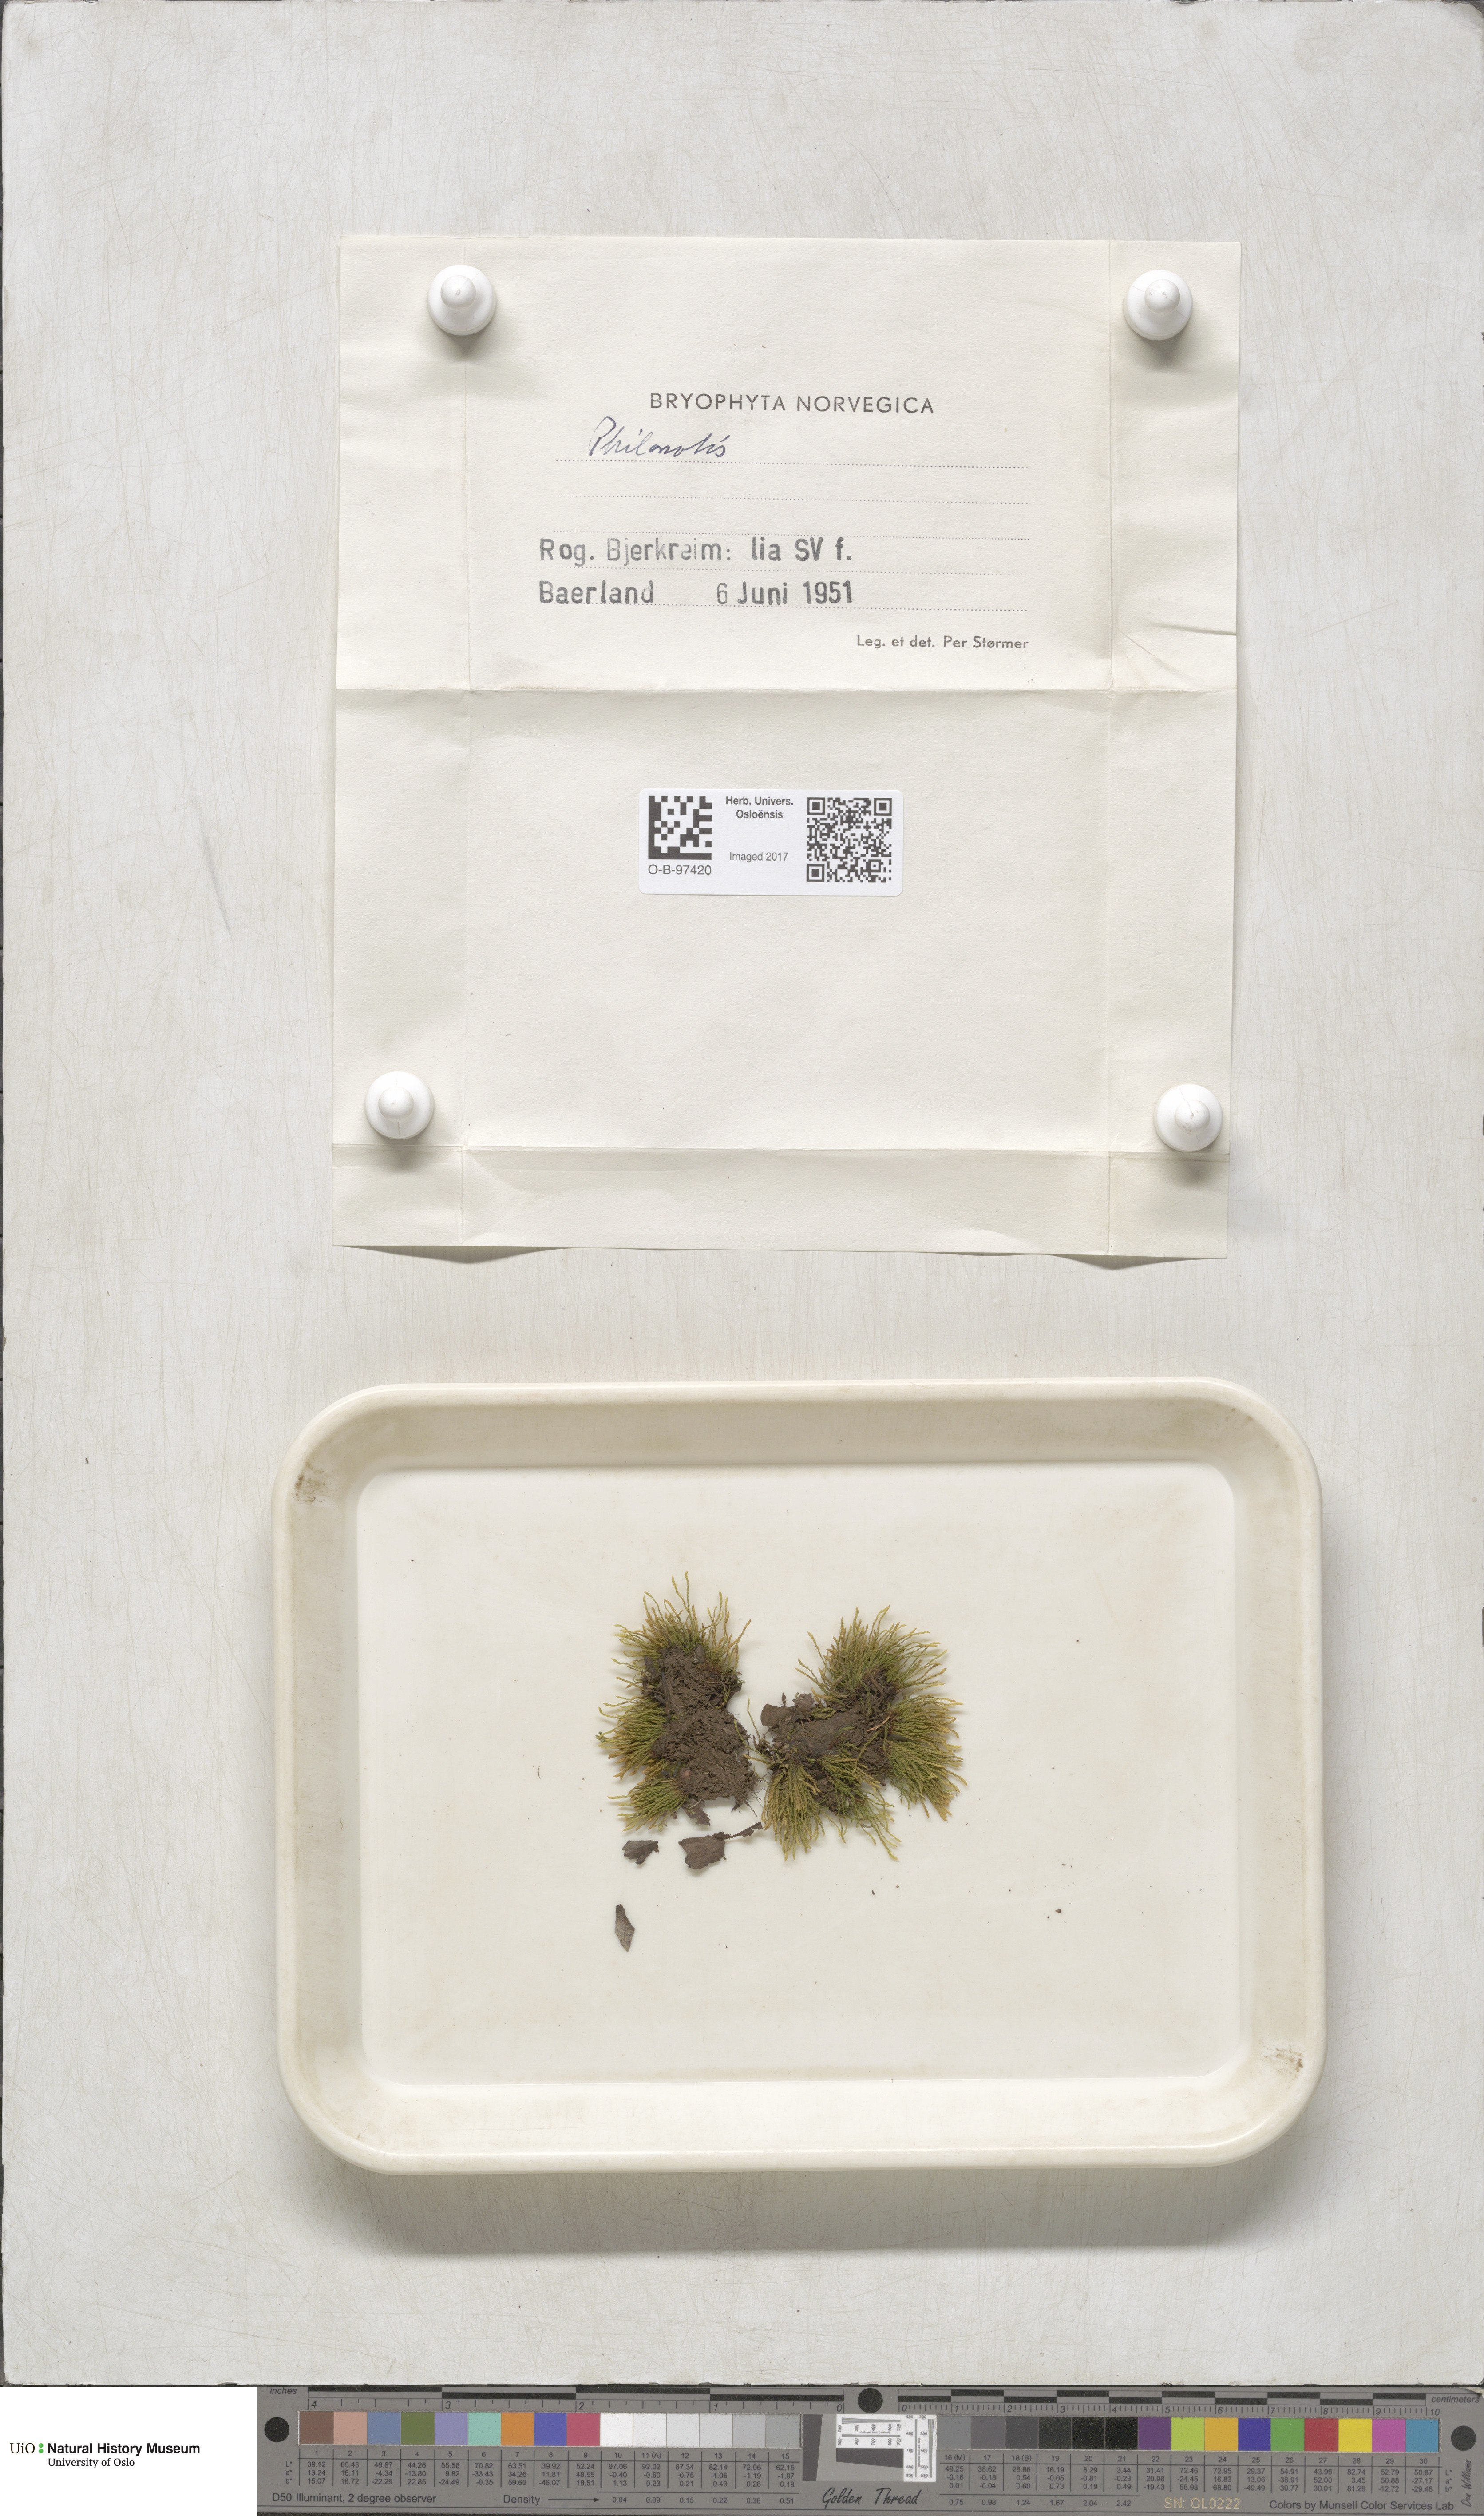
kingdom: Plantae
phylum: Bryophyta
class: Bryopsida
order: Bartramiales
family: Bartramiaceae
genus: Philonotis
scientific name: Philonotis
